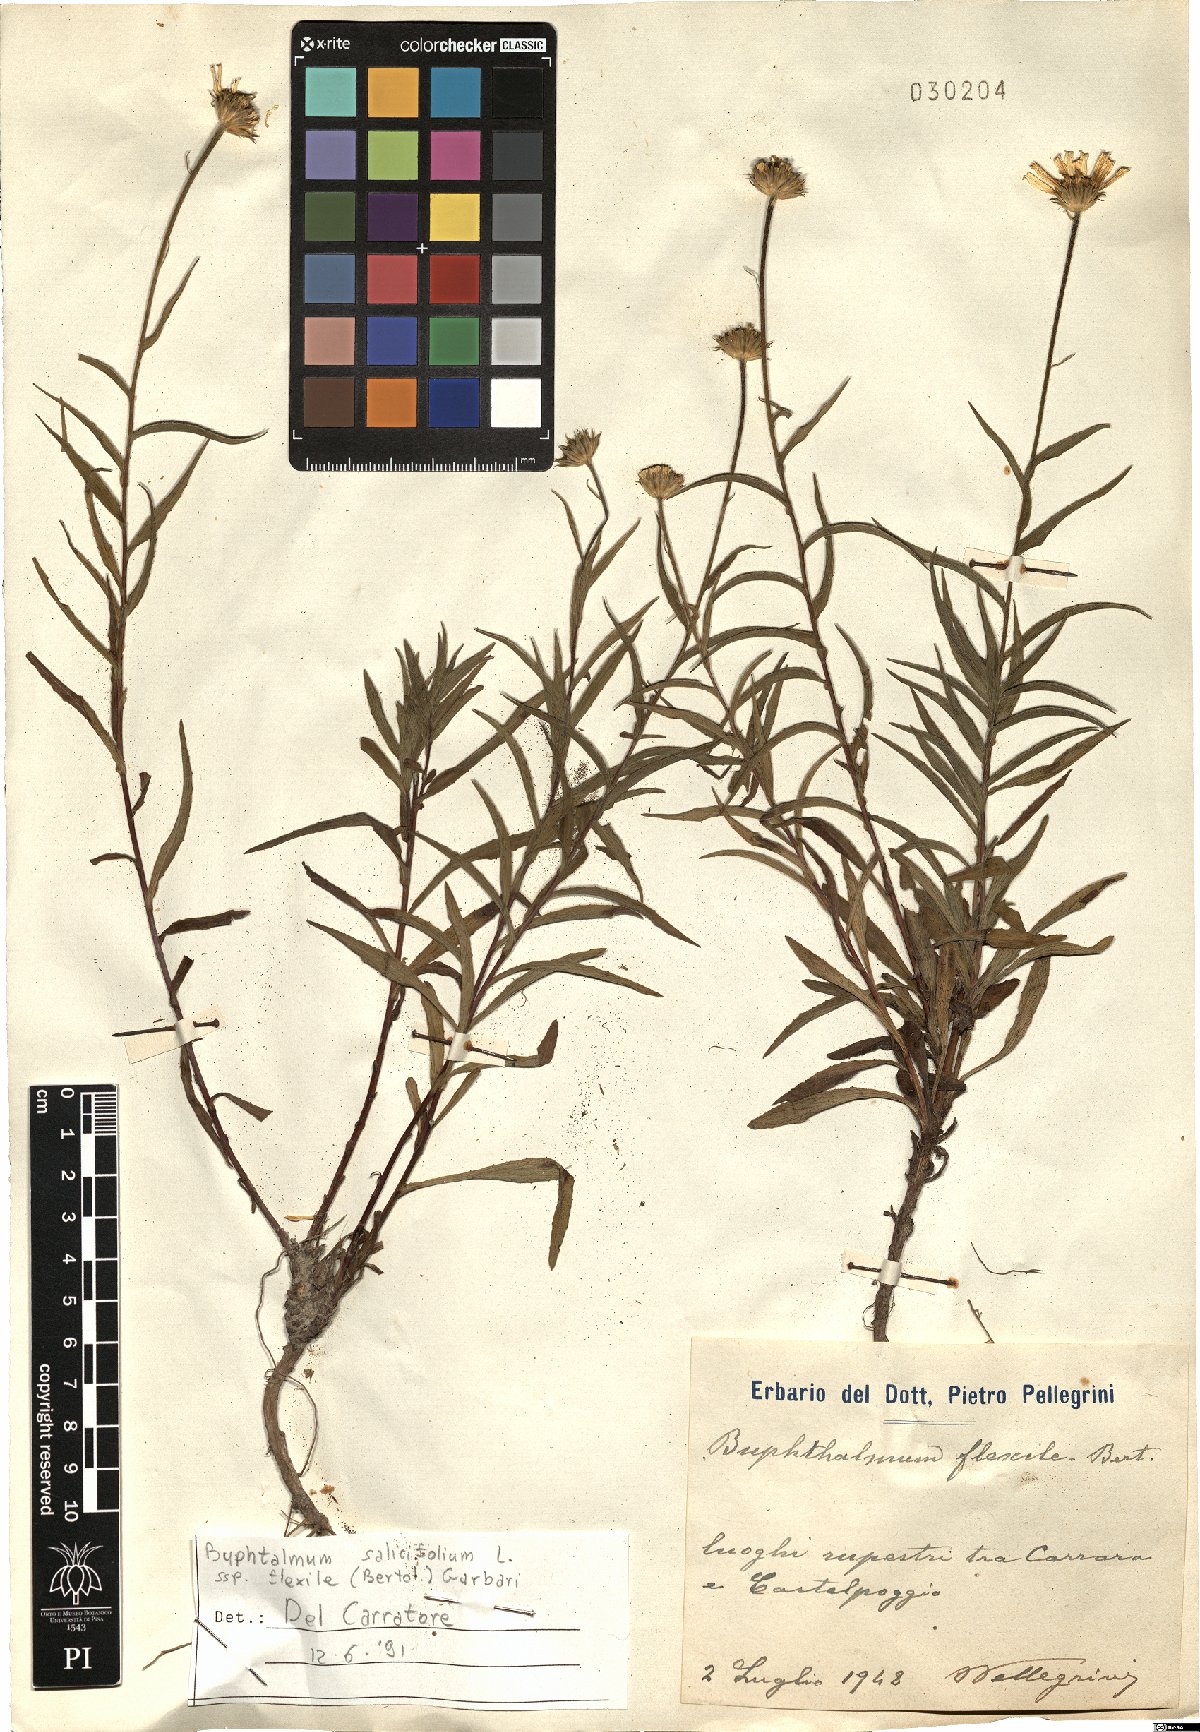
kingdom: Plantae
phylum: Tracheophyta
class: Magnoliopsida
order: Asterales
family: Asteraceae
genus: Buphthalmum
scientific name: Buphthalmum salicifolium
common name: Willow-leaved yellow-oxeye
